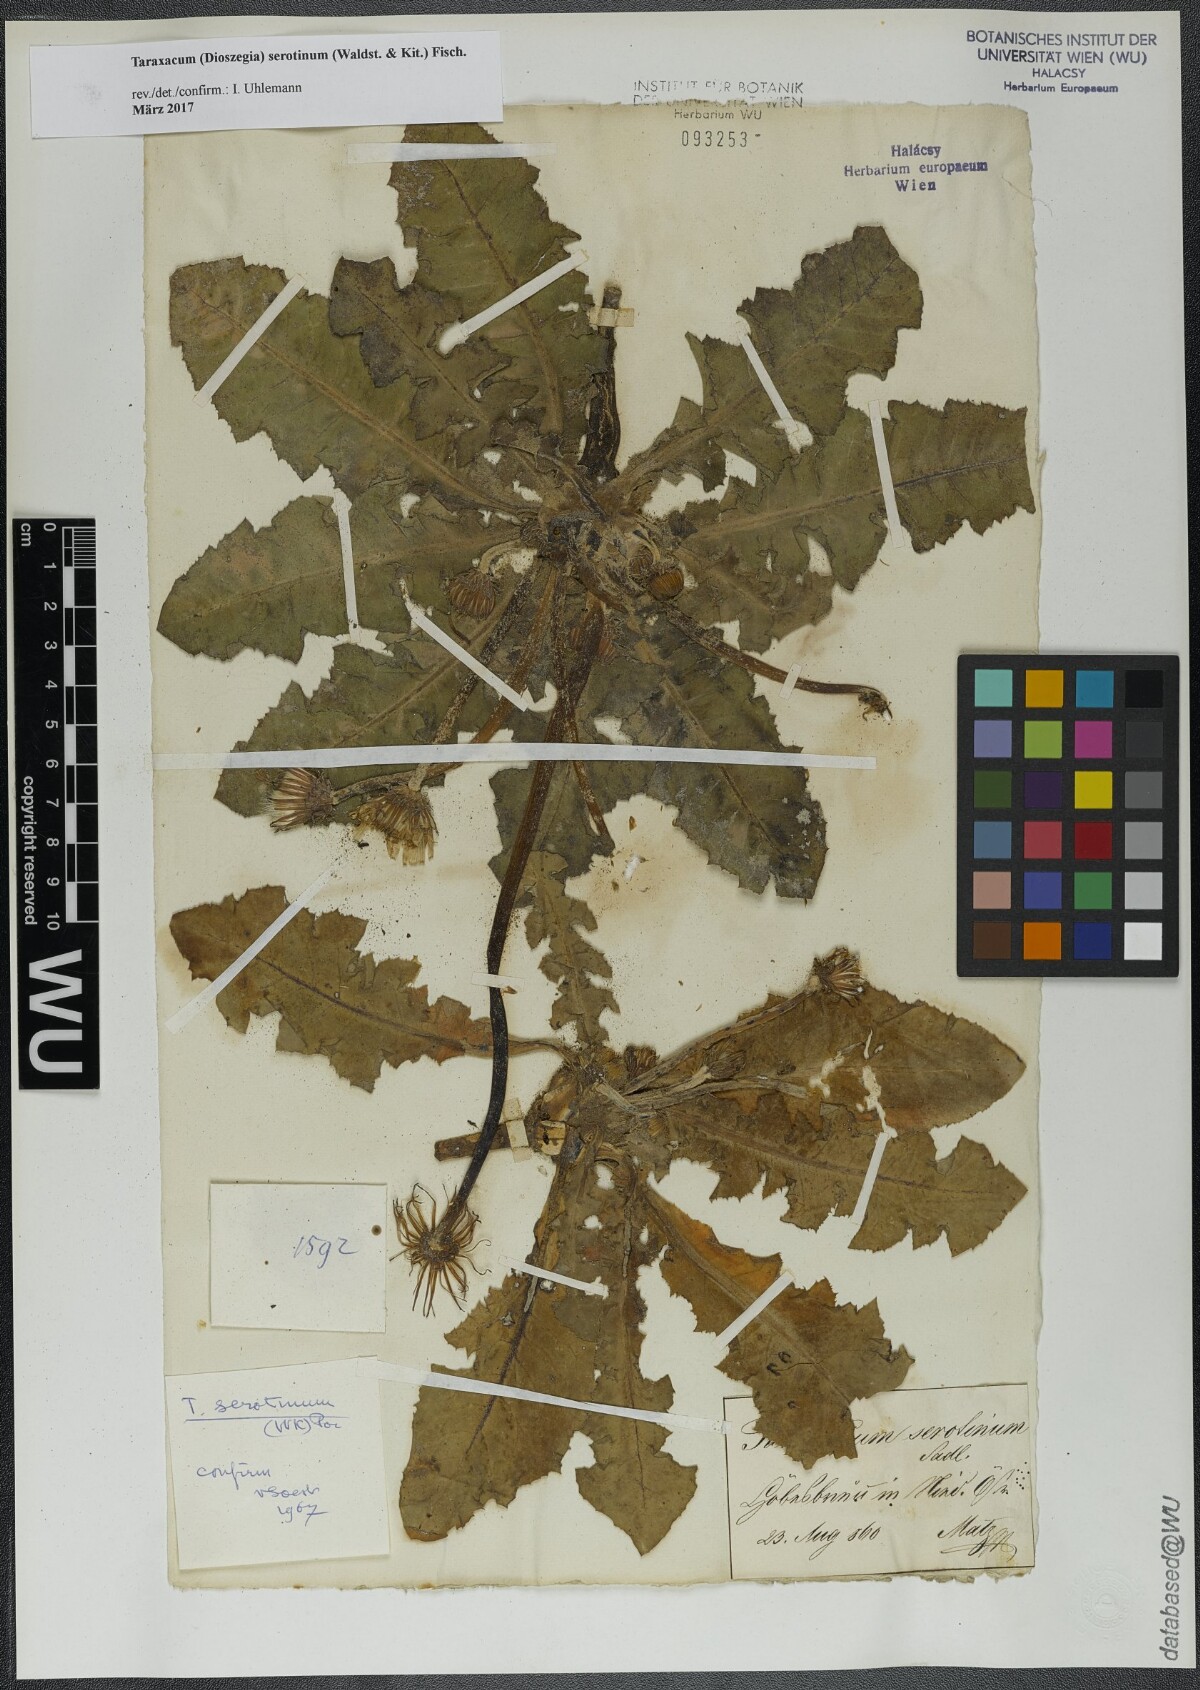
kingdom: Plantae
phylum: Tracheophyta
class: Magnoliopsida
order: Asterales
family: Asteraceae
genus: Taraxacum
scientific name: Taraxacum serotinum
